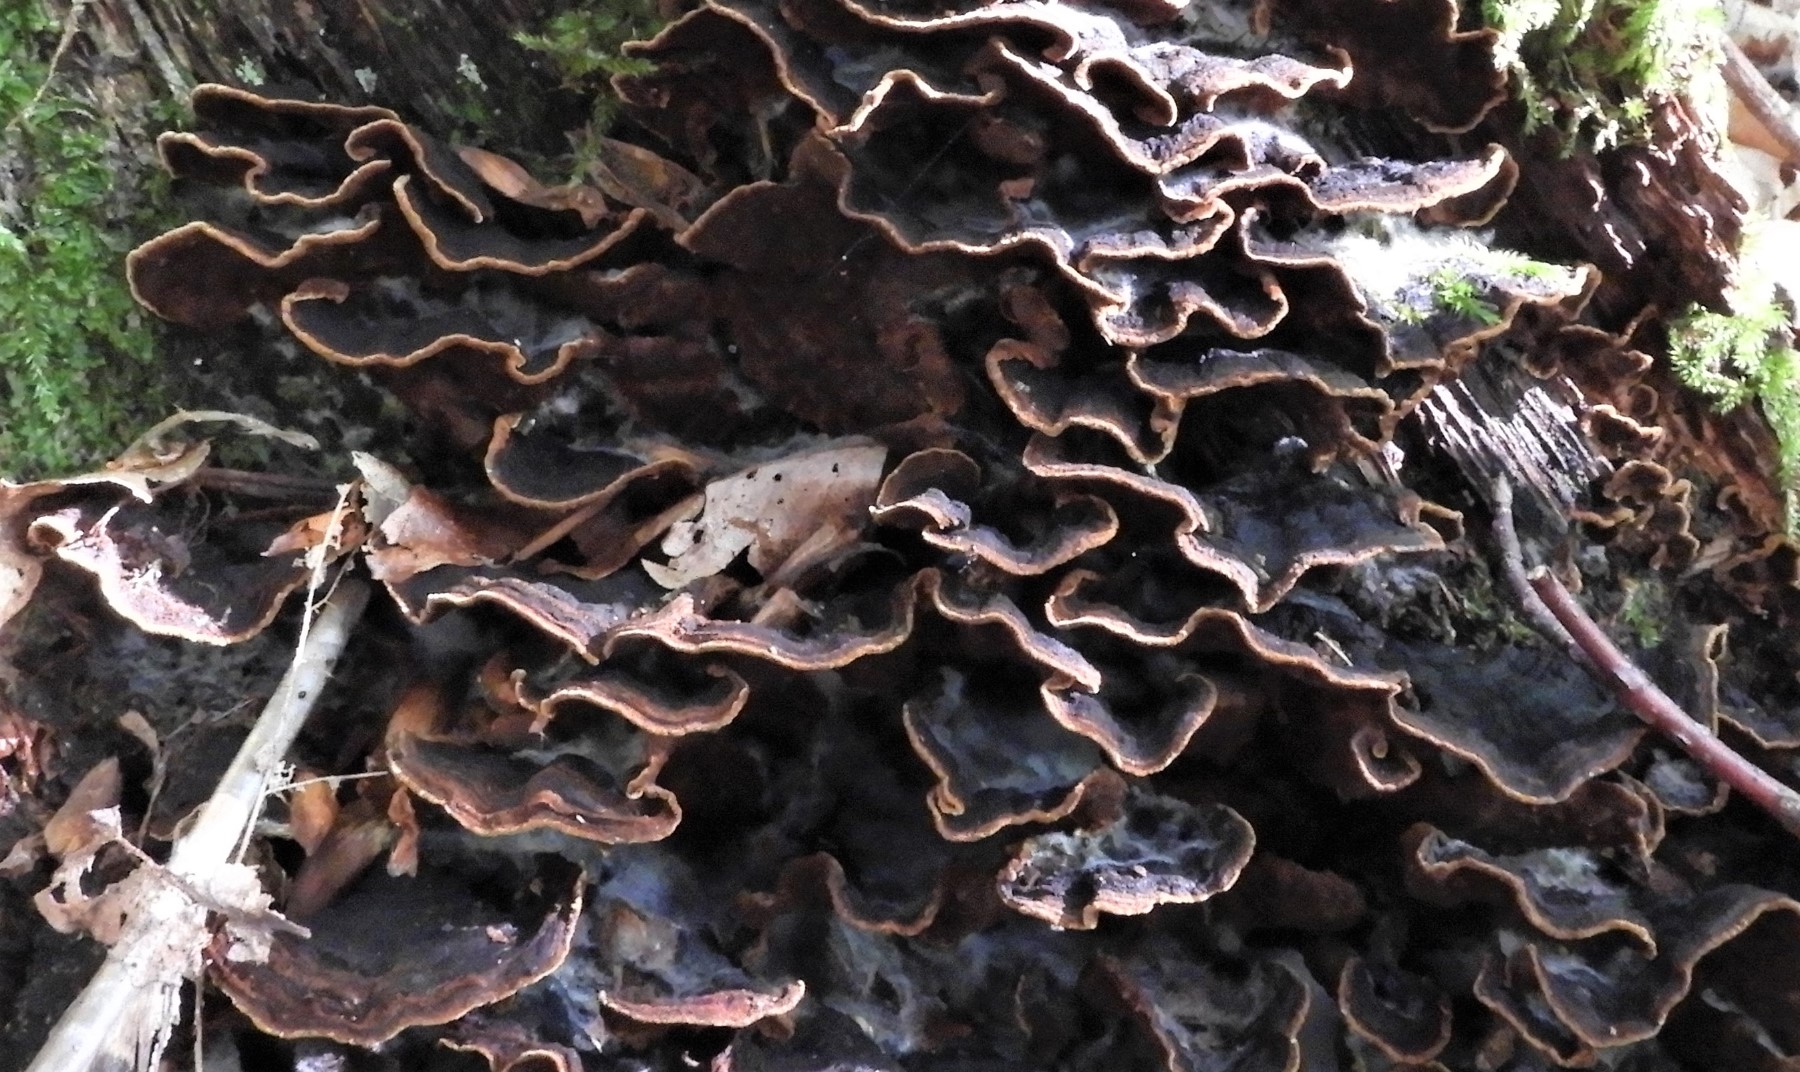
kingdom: Fungi
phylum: Basidiomycota
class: Agaricomycetes
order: Hymenochaetales
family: Hymenochaetaceae
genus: Hymenochaete
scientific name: Hymenochaete rubiginosa
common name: stiv ruslædersvamp
